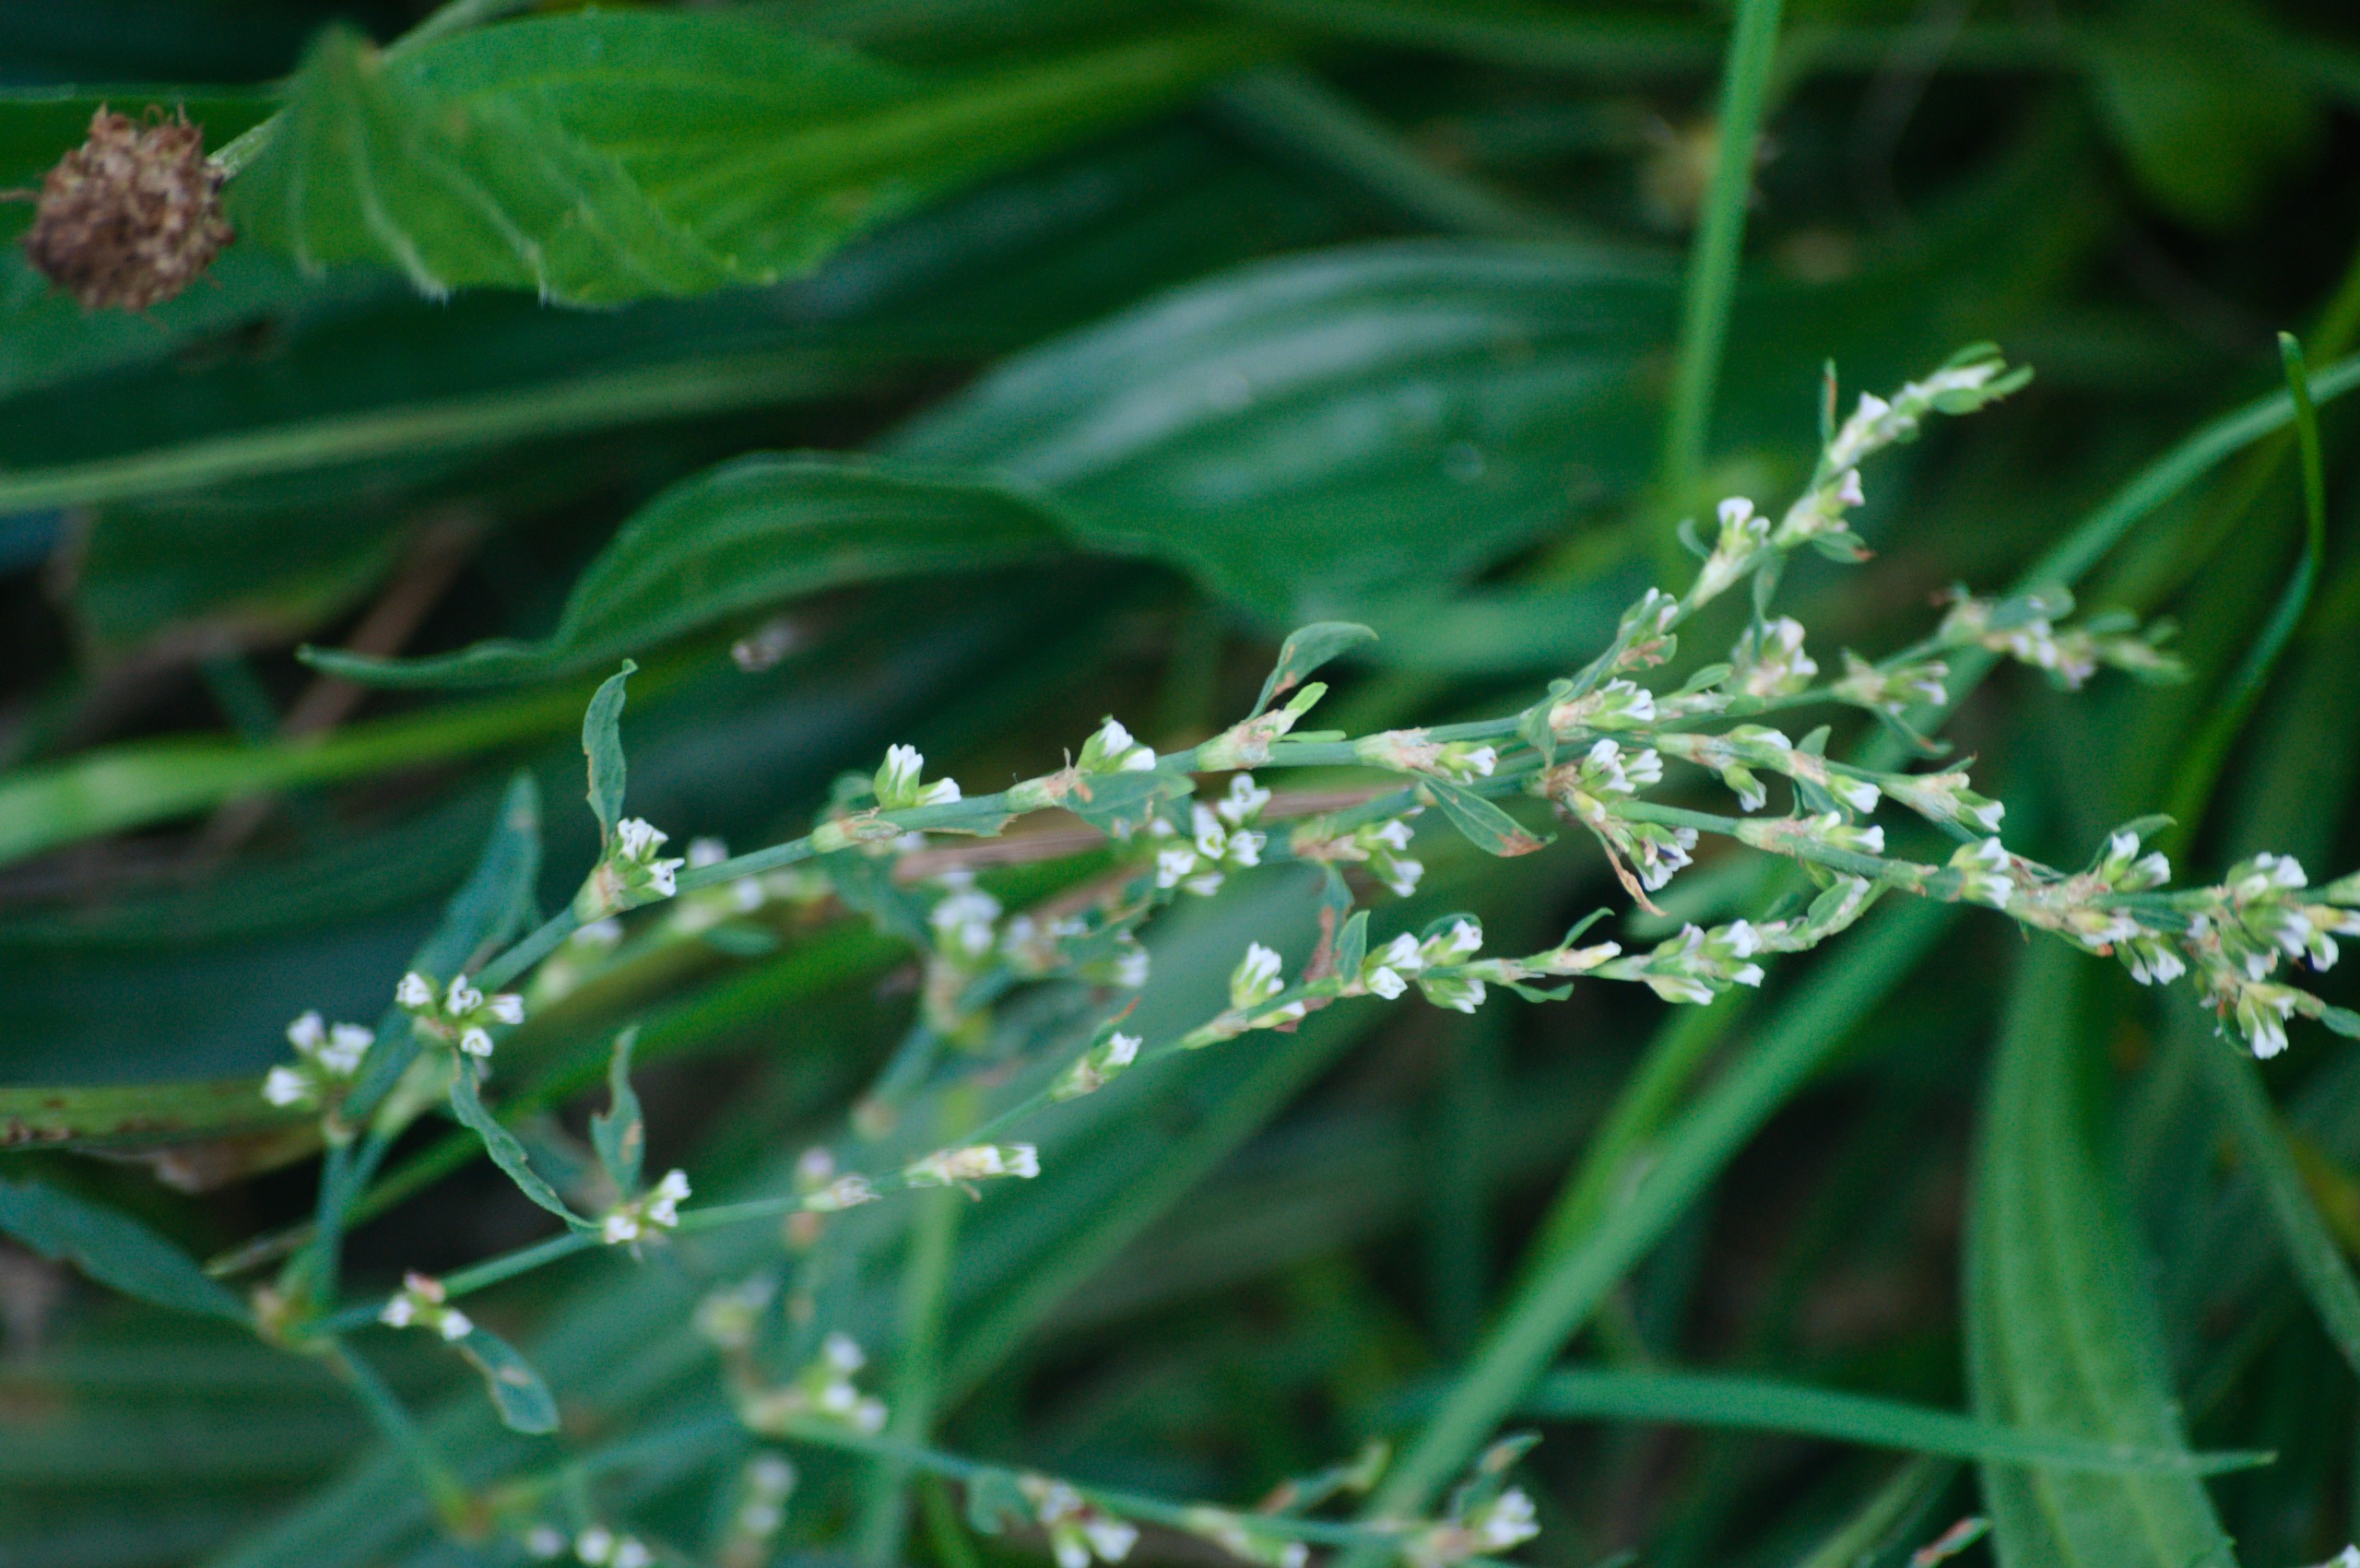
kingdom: Plantae
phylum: Tracheophyta
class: Magnoliopsida
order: Caryophyllales
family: Polygonaceae
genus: Polygonum
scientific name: Polygonum aviculare
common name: Vej-pileurt
